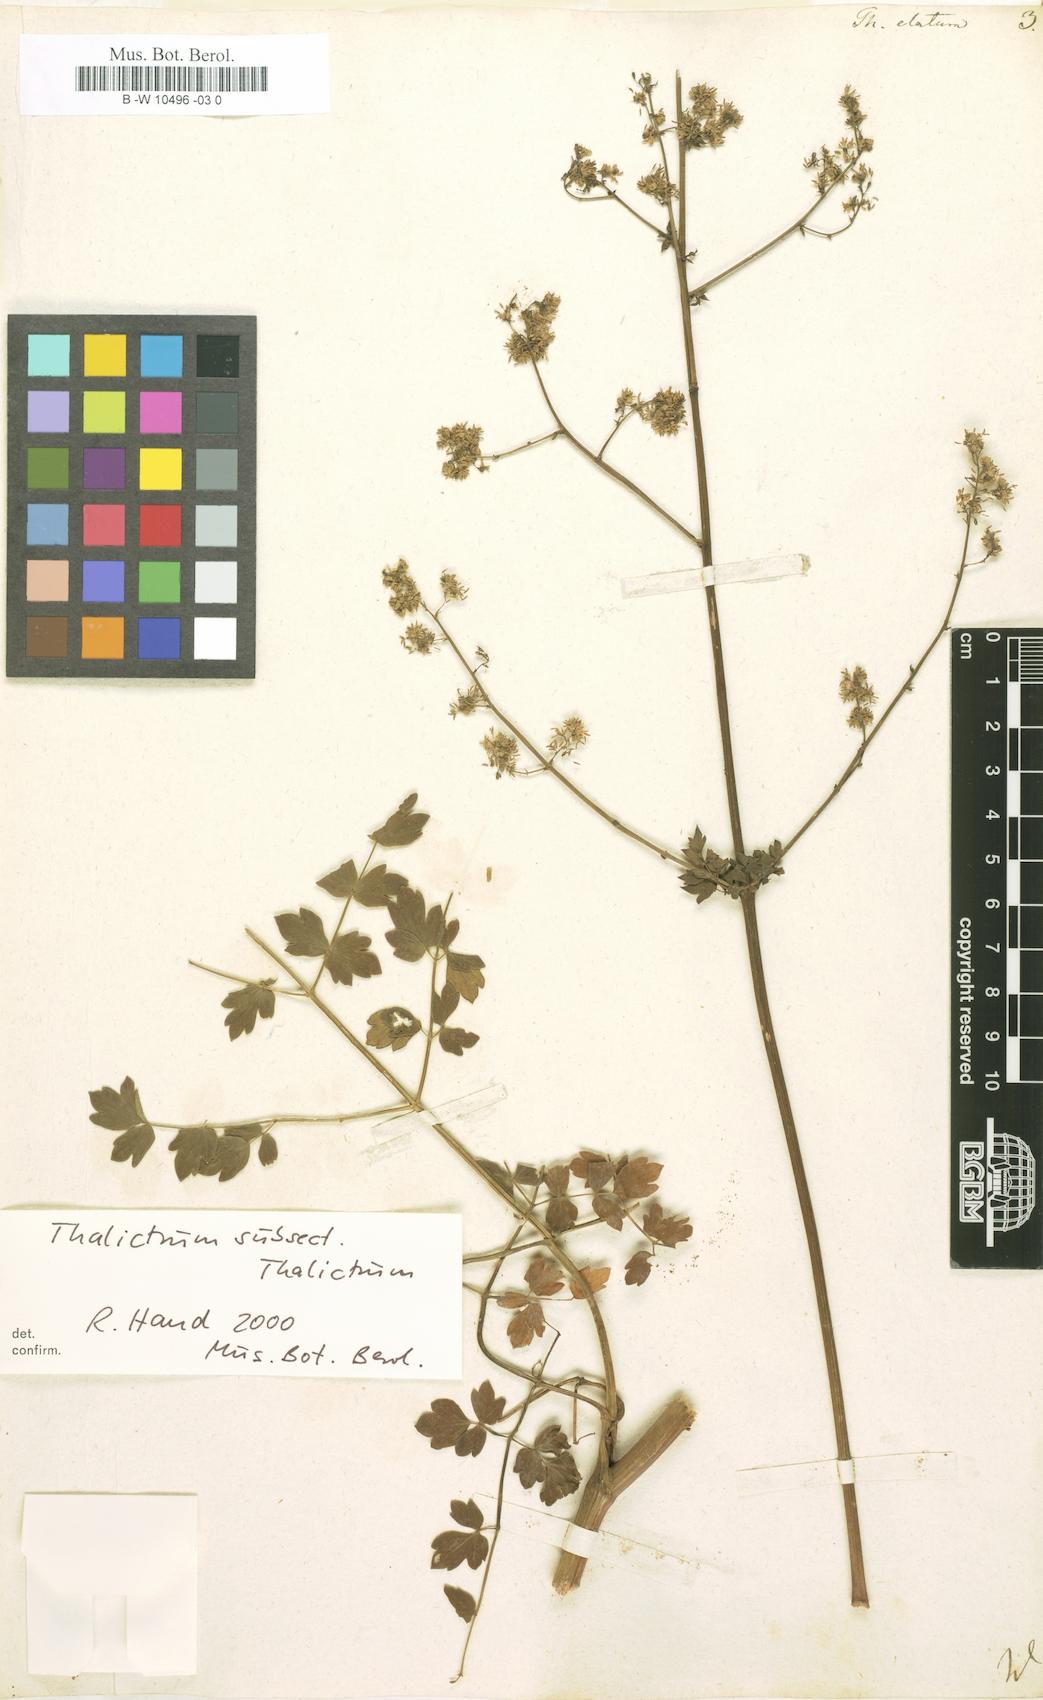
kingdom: Plantae
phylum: Tracheophyta
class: Magnoliopsida
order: Ranunculales
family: Ranunculaceae
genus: Thalictrum
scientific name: Thalictrum minus
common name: Lesser meadow-rue
